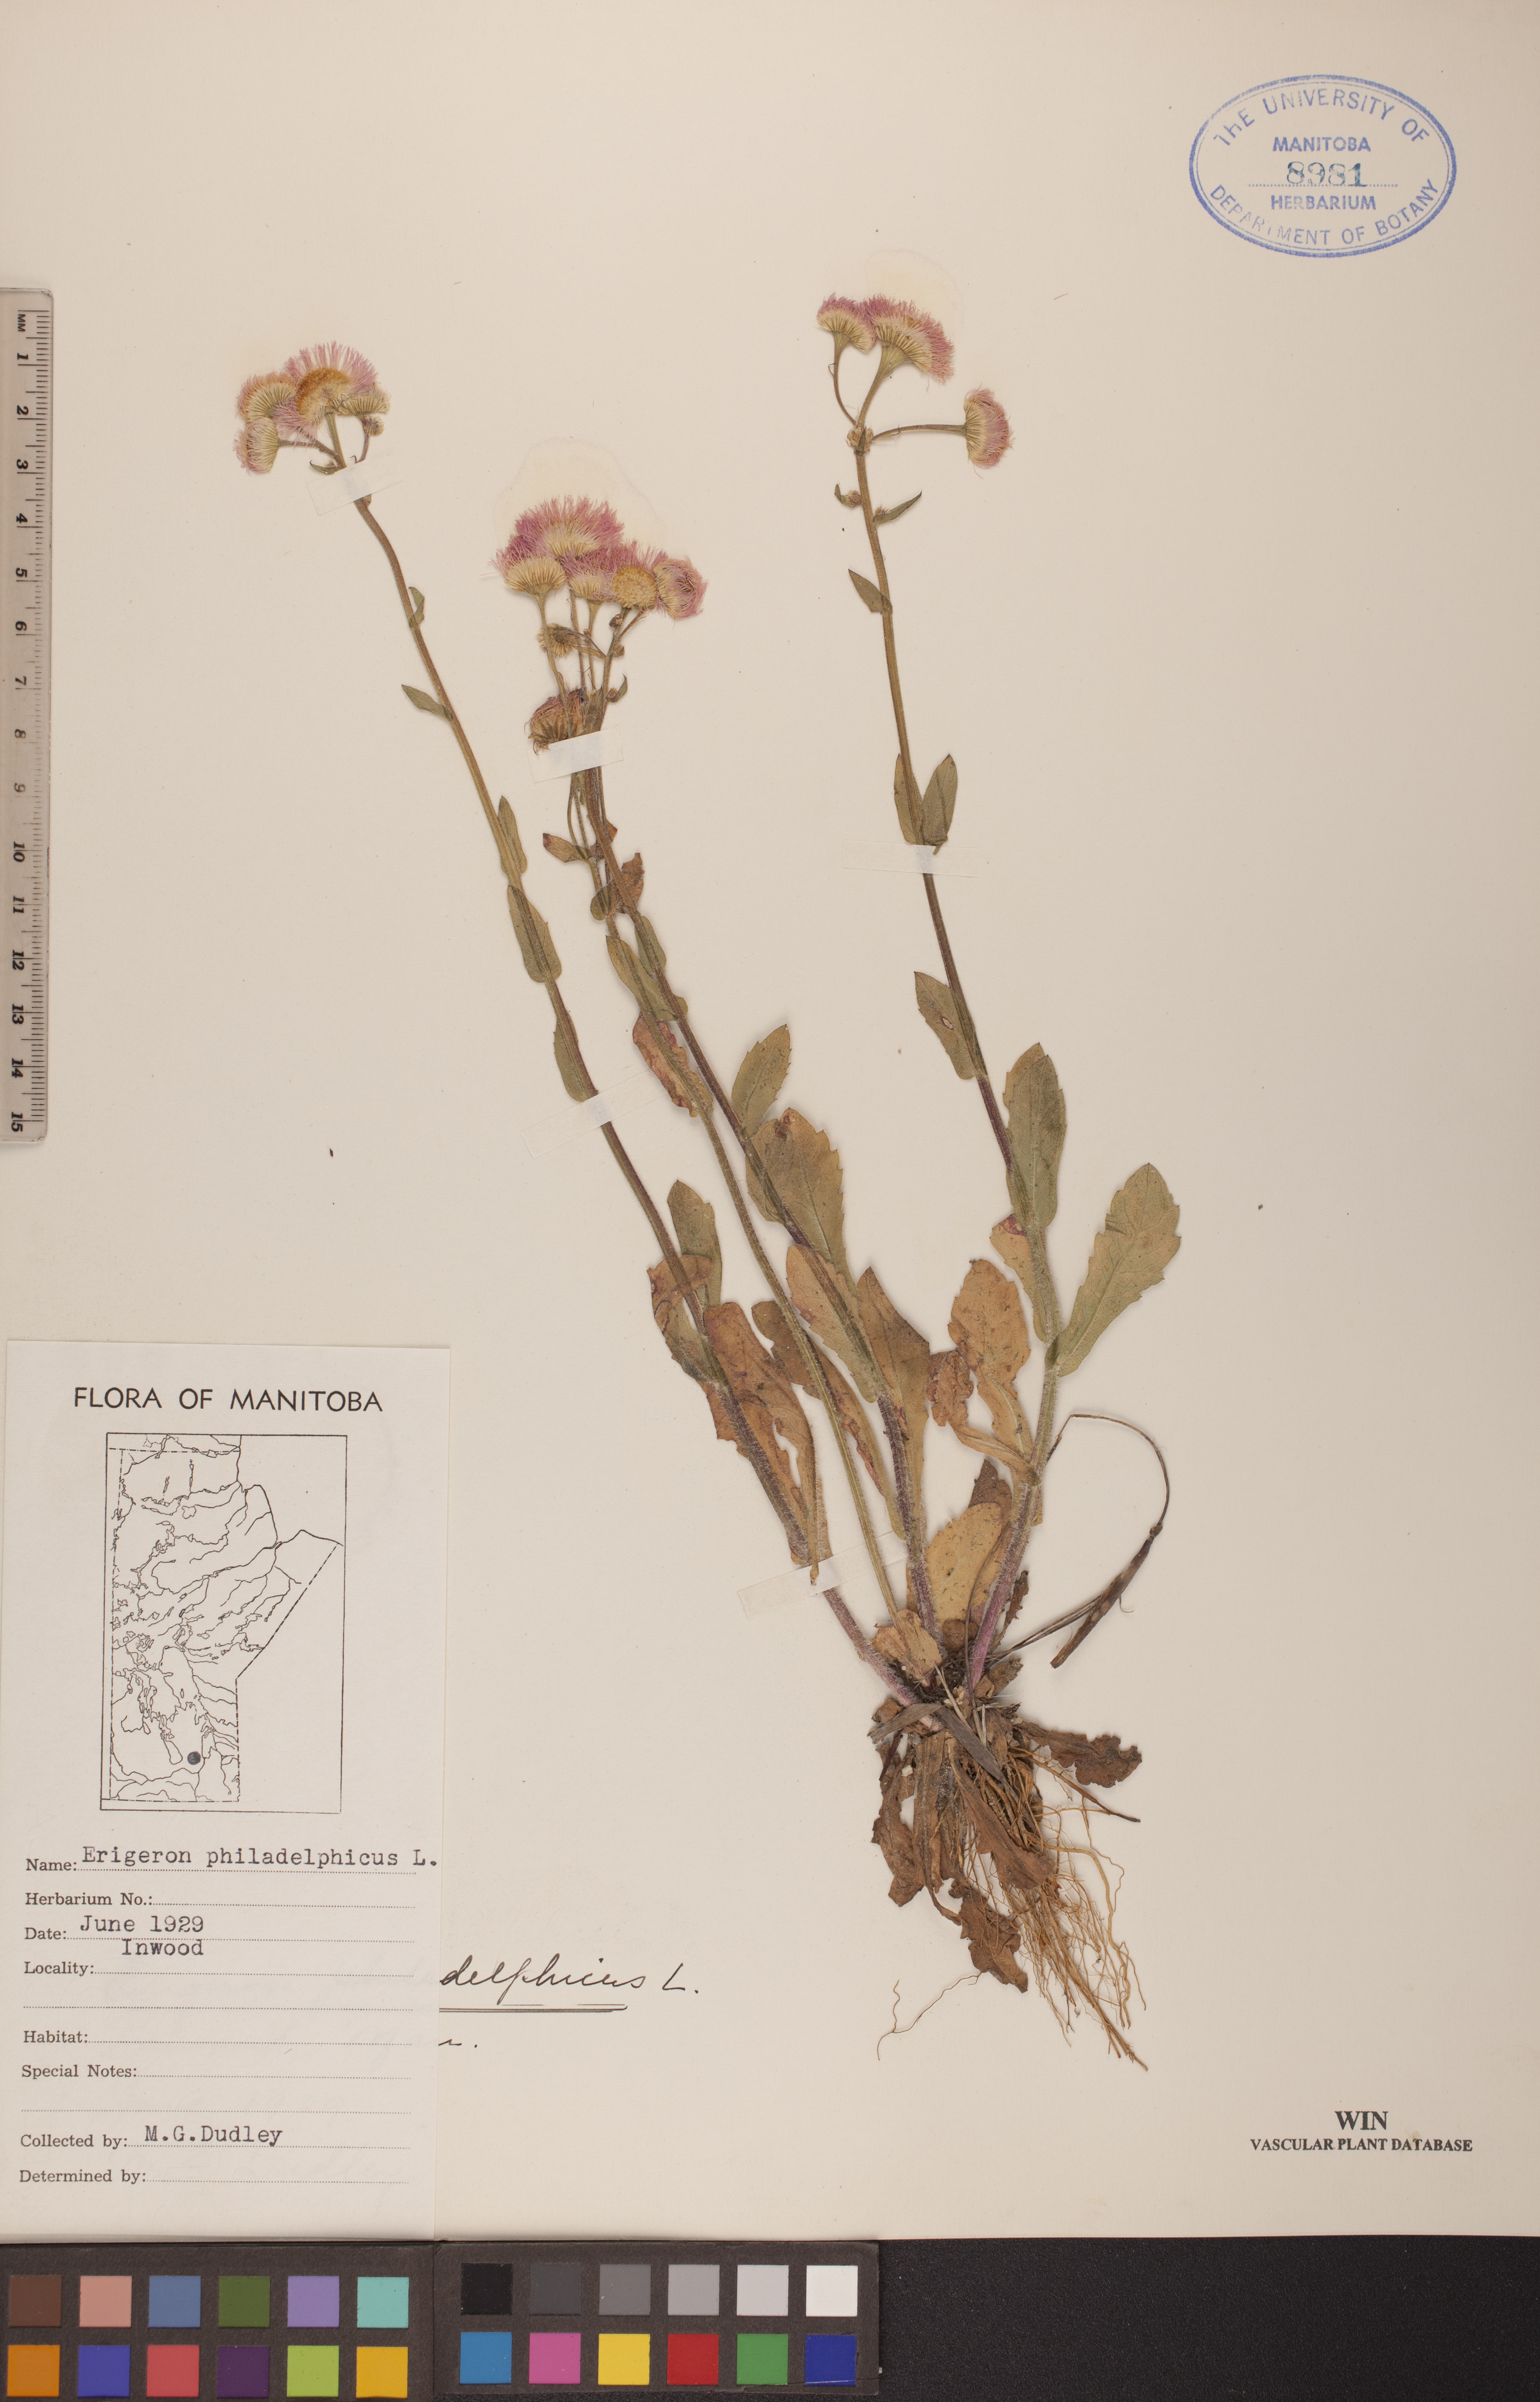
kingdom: Plantae
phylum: Tracheophyta
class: Magnoliopsida
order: Asterales
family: Asteraceae
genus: Erigeron
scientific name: Erigeron philadelphicus
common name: Robin's-plantain
